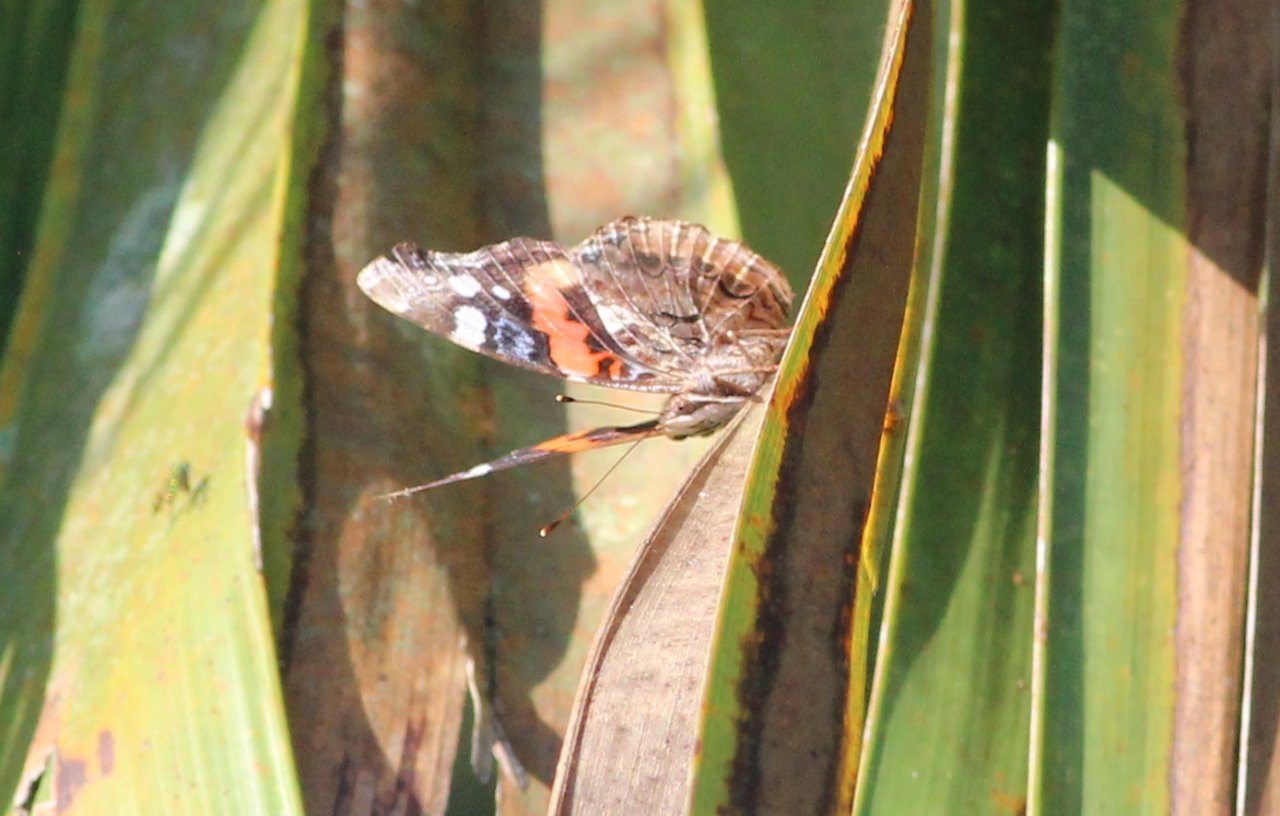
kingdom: Animalia
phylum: Arthropoda
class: Insecta
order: Lepidoptera
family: Nymphalidae
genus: Vanessa
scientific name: Vanessa atalanta
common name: Red Admiral
